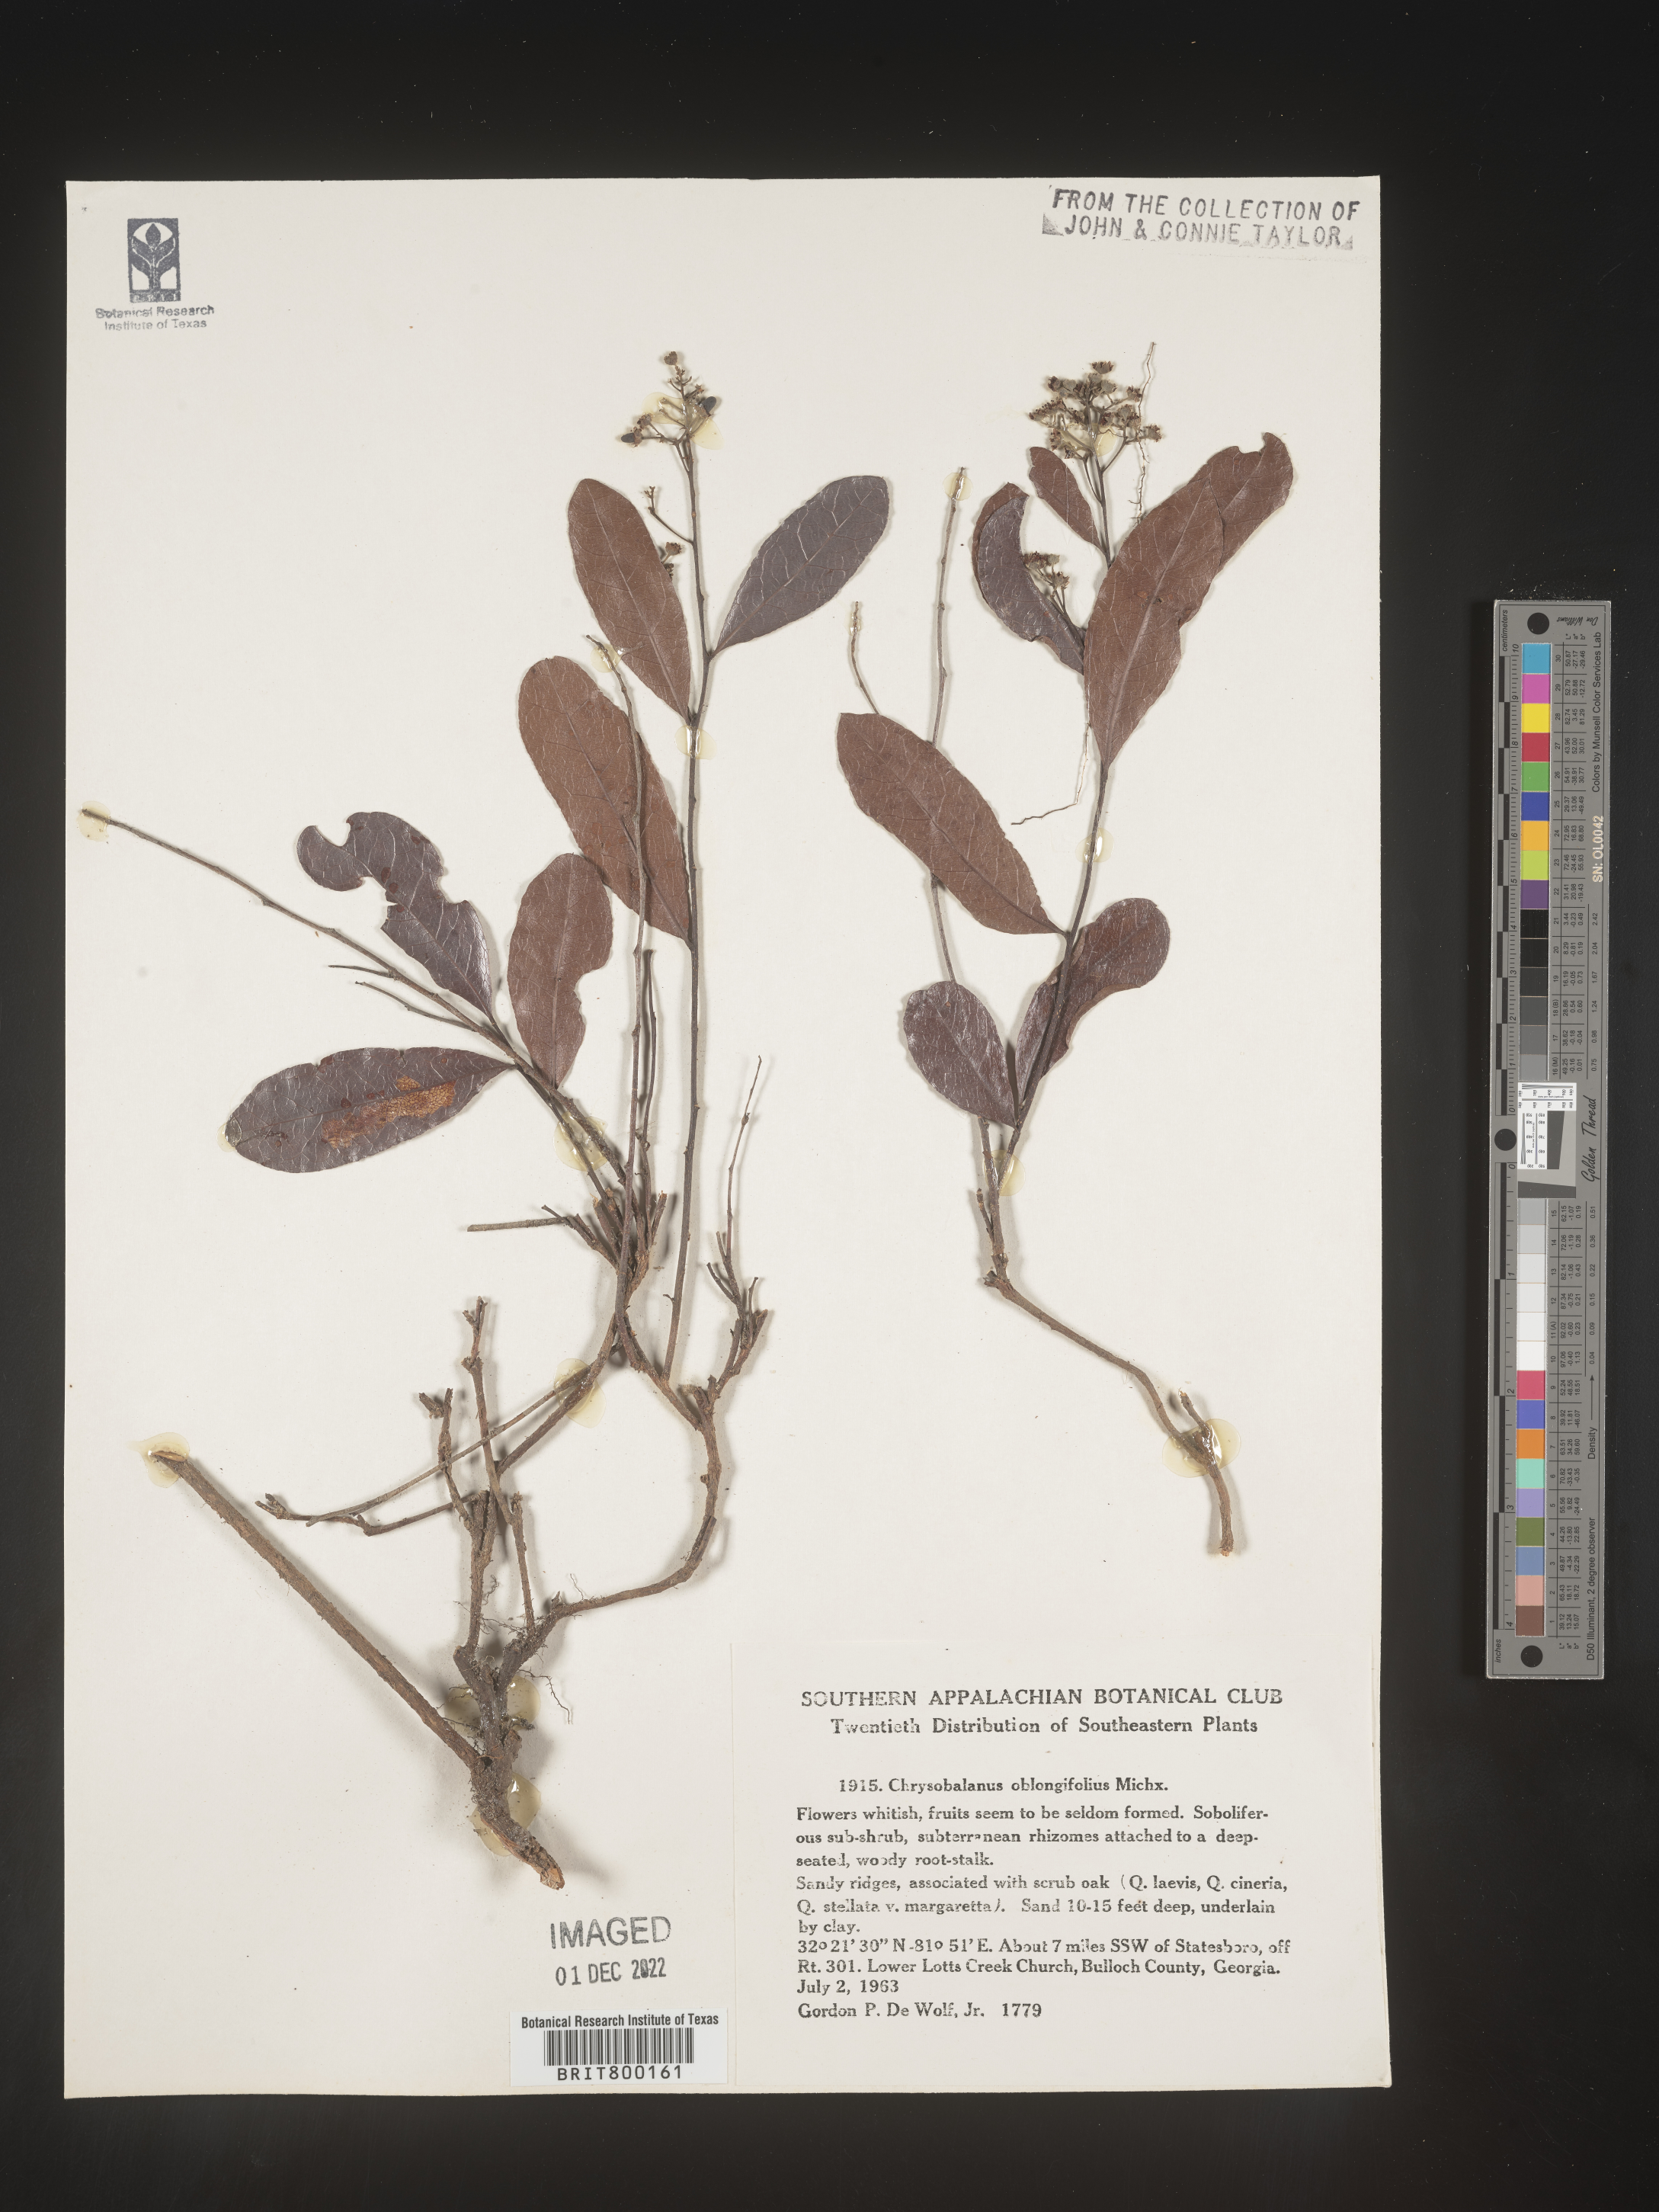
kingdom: Plantae
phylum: Tracheophyta
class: Magnoliopsida
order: Malpighiales
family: Chrysobalanaceae
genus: Geobalanus
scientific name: Geobalanus oblongifolius
